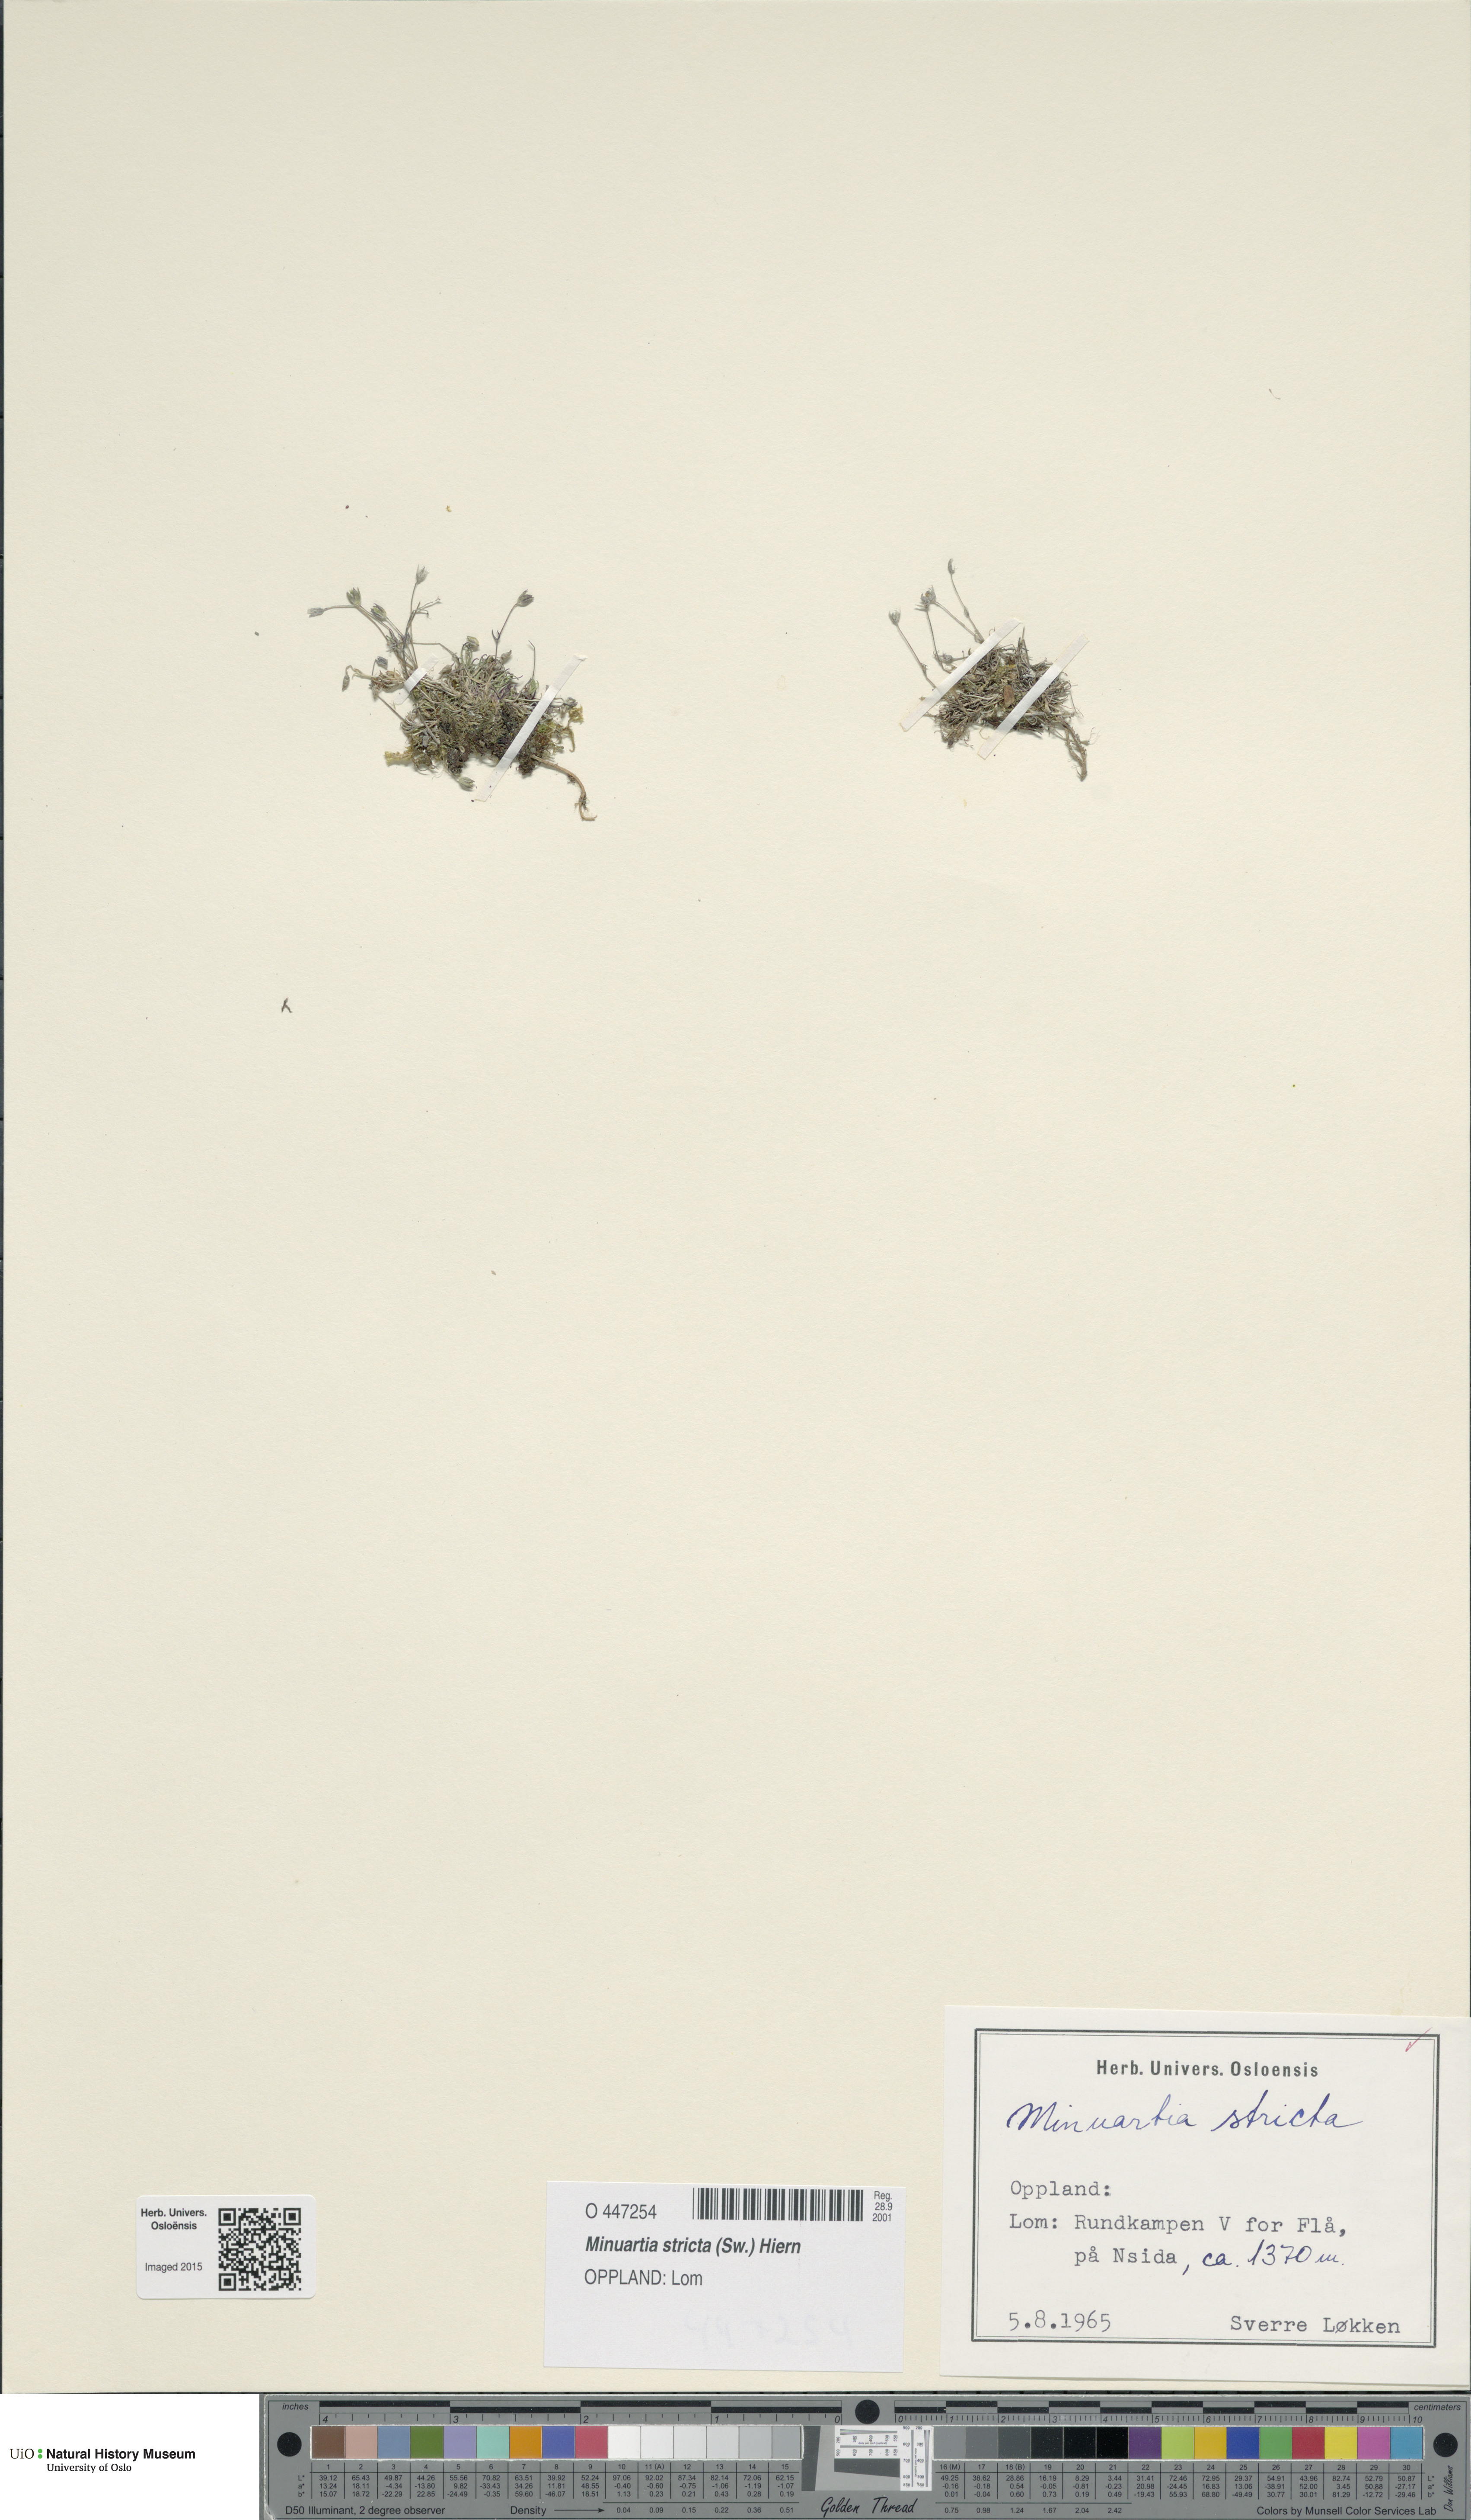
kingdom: Plantae
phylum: Tracheophyta
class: Magnoliopsida
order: Caryophyllales
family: Caryophyllaceae
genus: Sabulina
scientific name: Sabulina stricta
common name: Bog sandwort
